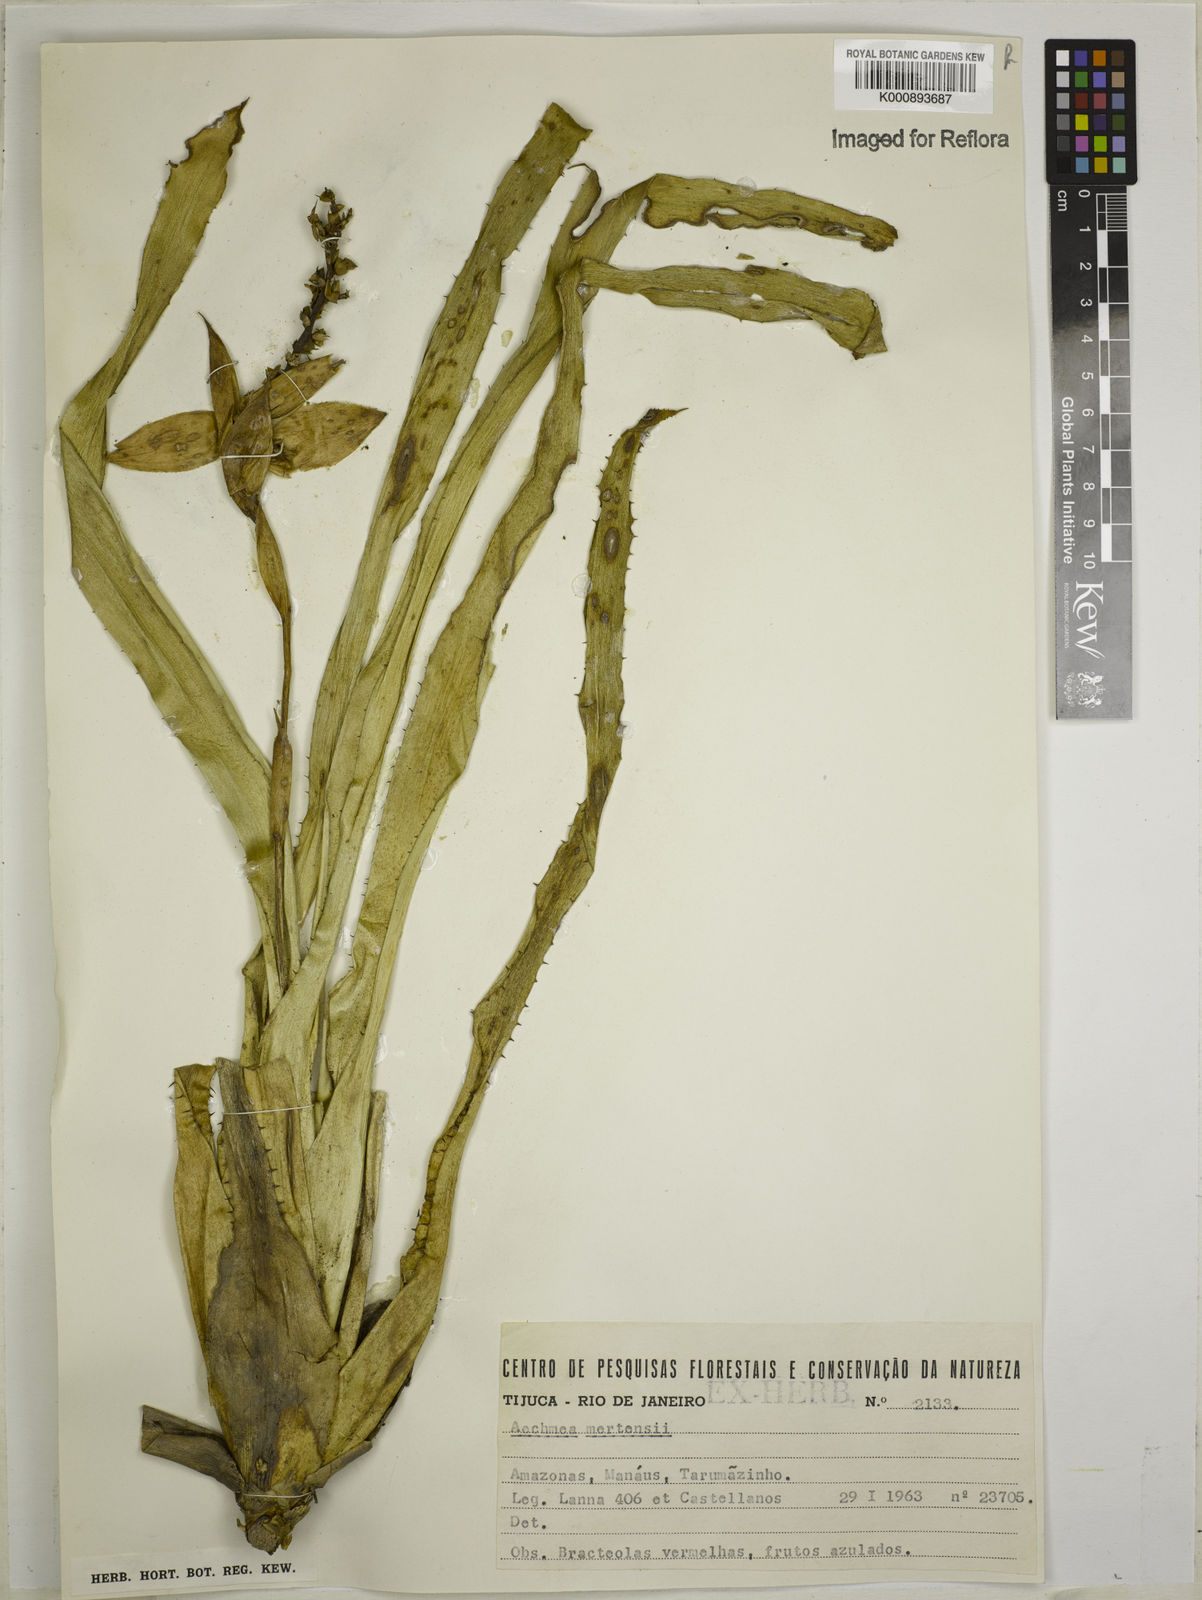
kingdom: Plantae
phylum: Tracheophyta
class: Liliopsida
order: Poales
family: Bromeliaceae
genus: Aechmea
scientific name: Aechmea mertensii
